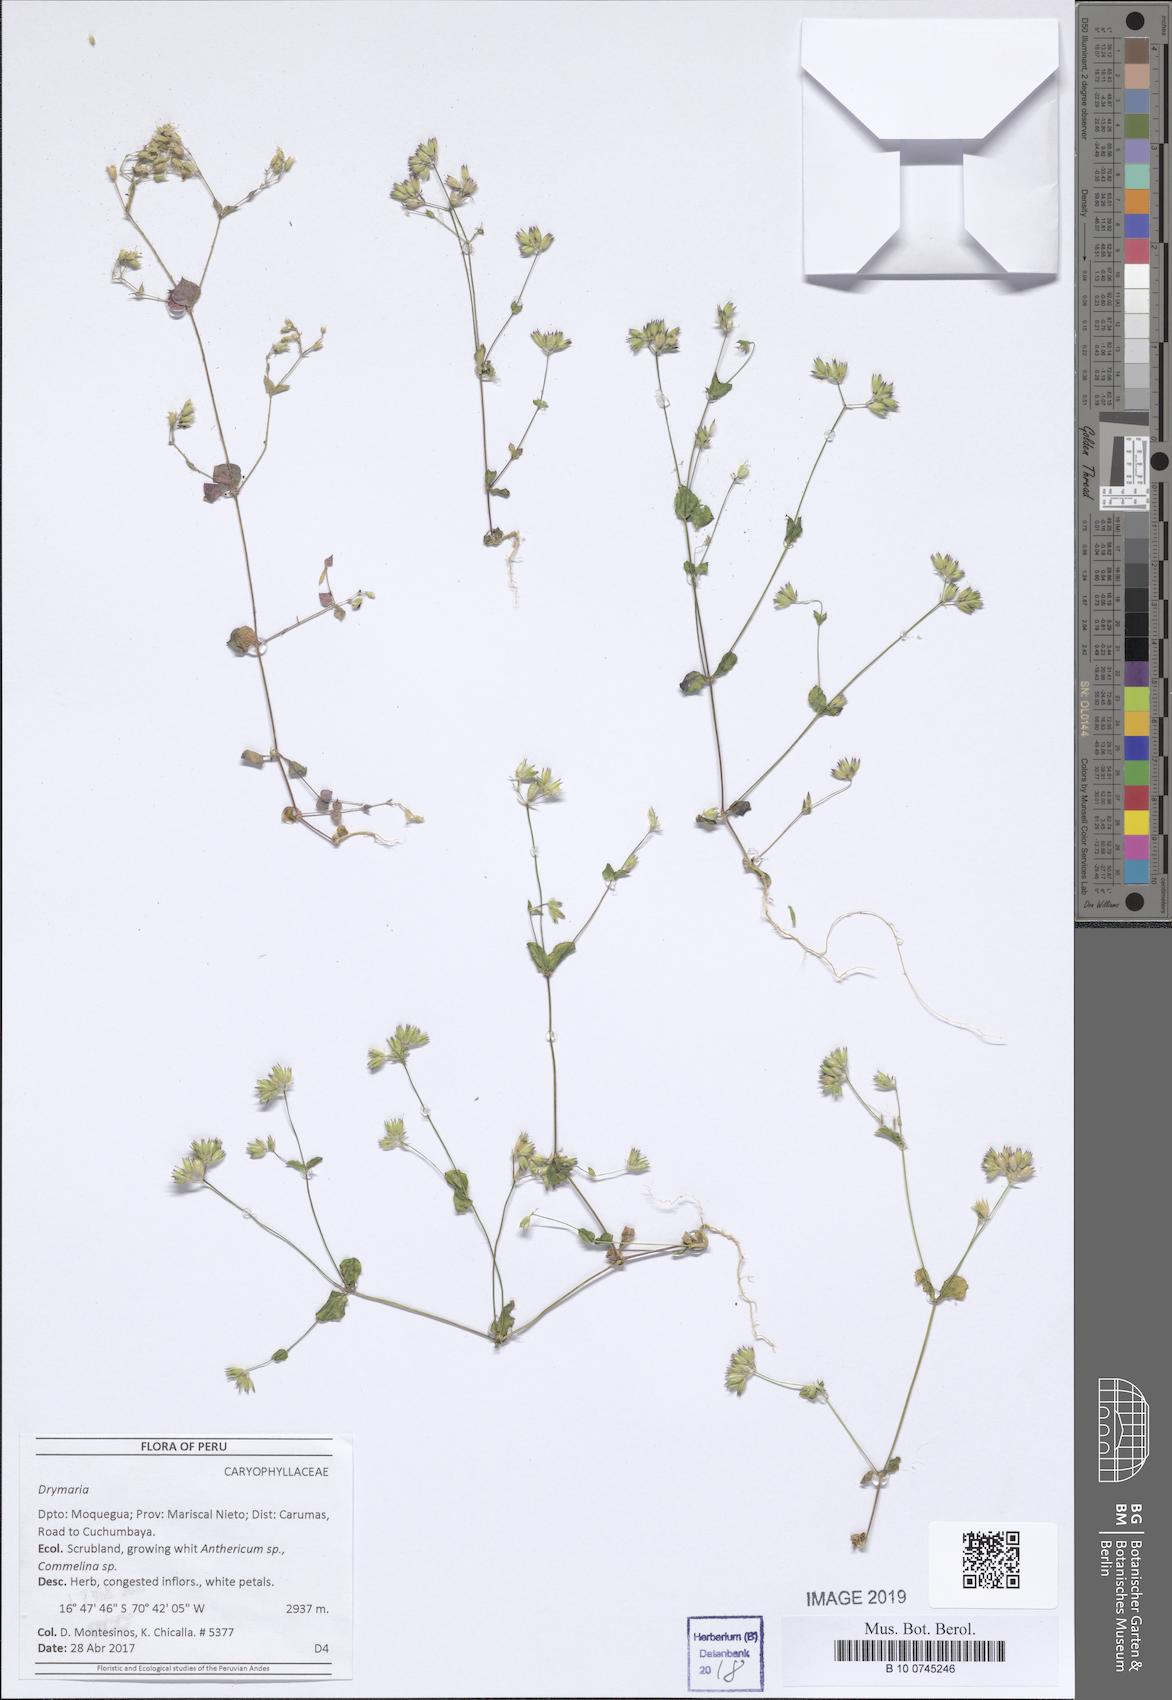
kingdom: Plantae
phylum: Tracheophyta
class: Magnoliopsida
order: Caryophyllales
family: Caryophyllaceae
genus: Drymaria
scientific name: Drymaria
